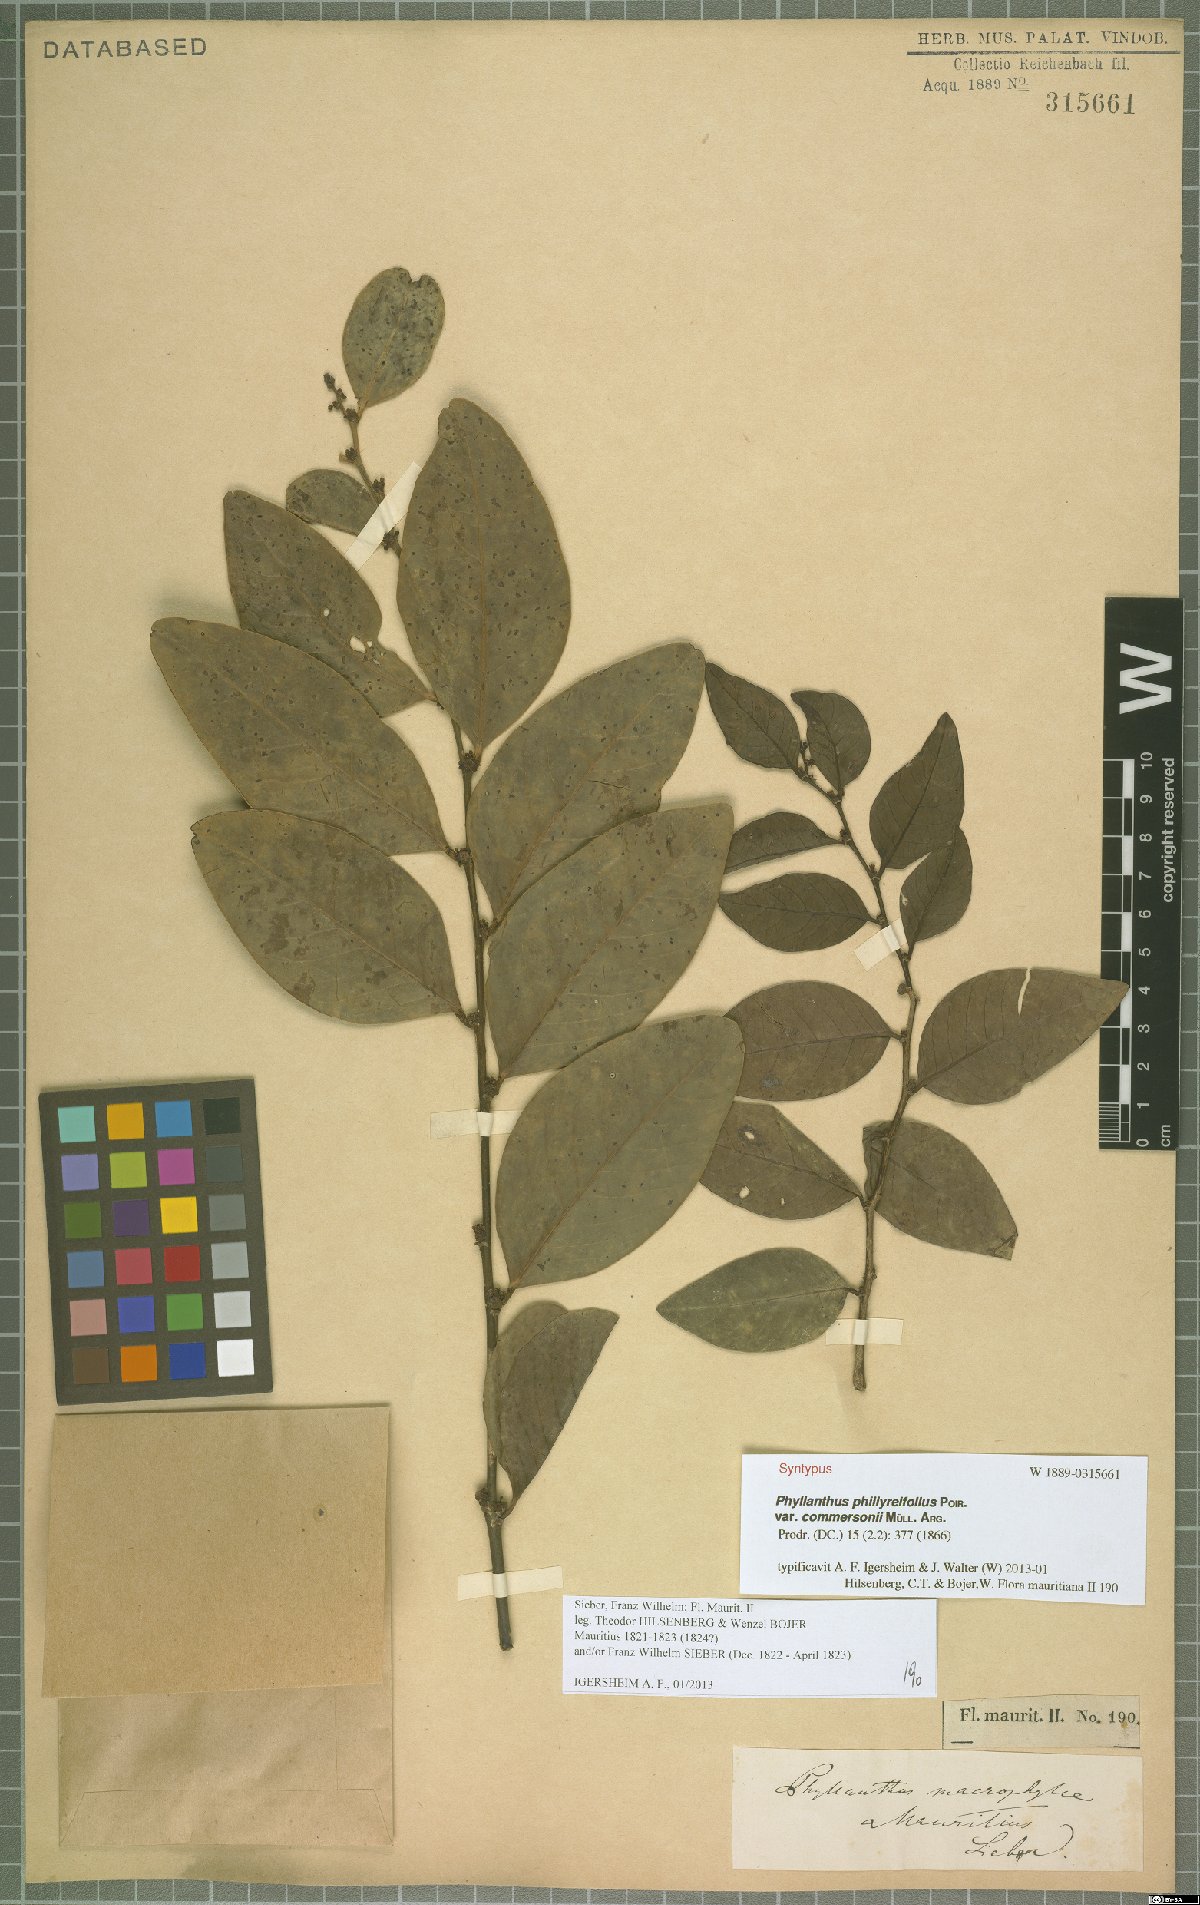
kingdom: Plantae
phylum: Tracheophyta
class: Magnoliopsida
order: Malpighiales
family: Phyllanthaceae
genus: Phyllanthus
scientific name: Phyllanthus phillyreifolius
